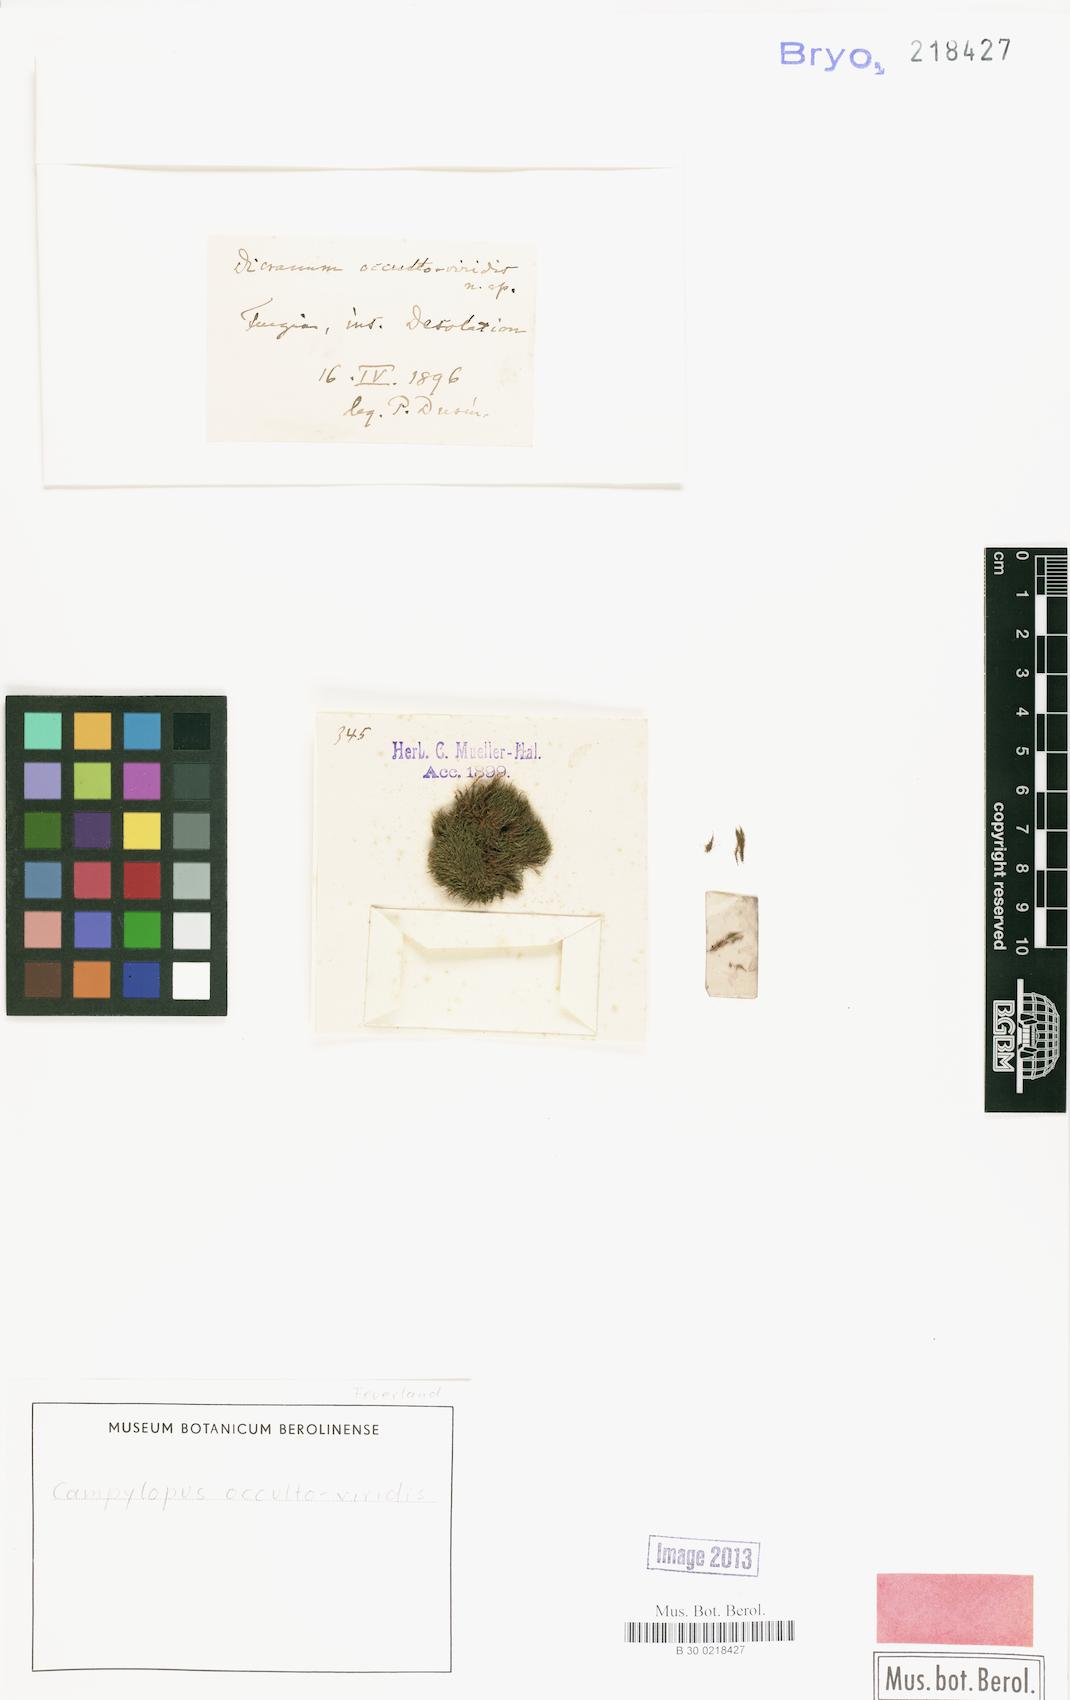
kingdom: Plantae
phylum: Bryophyta
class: Bryopsida
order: Dicranales
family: Dicranaceae
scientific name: Dicranaceae
